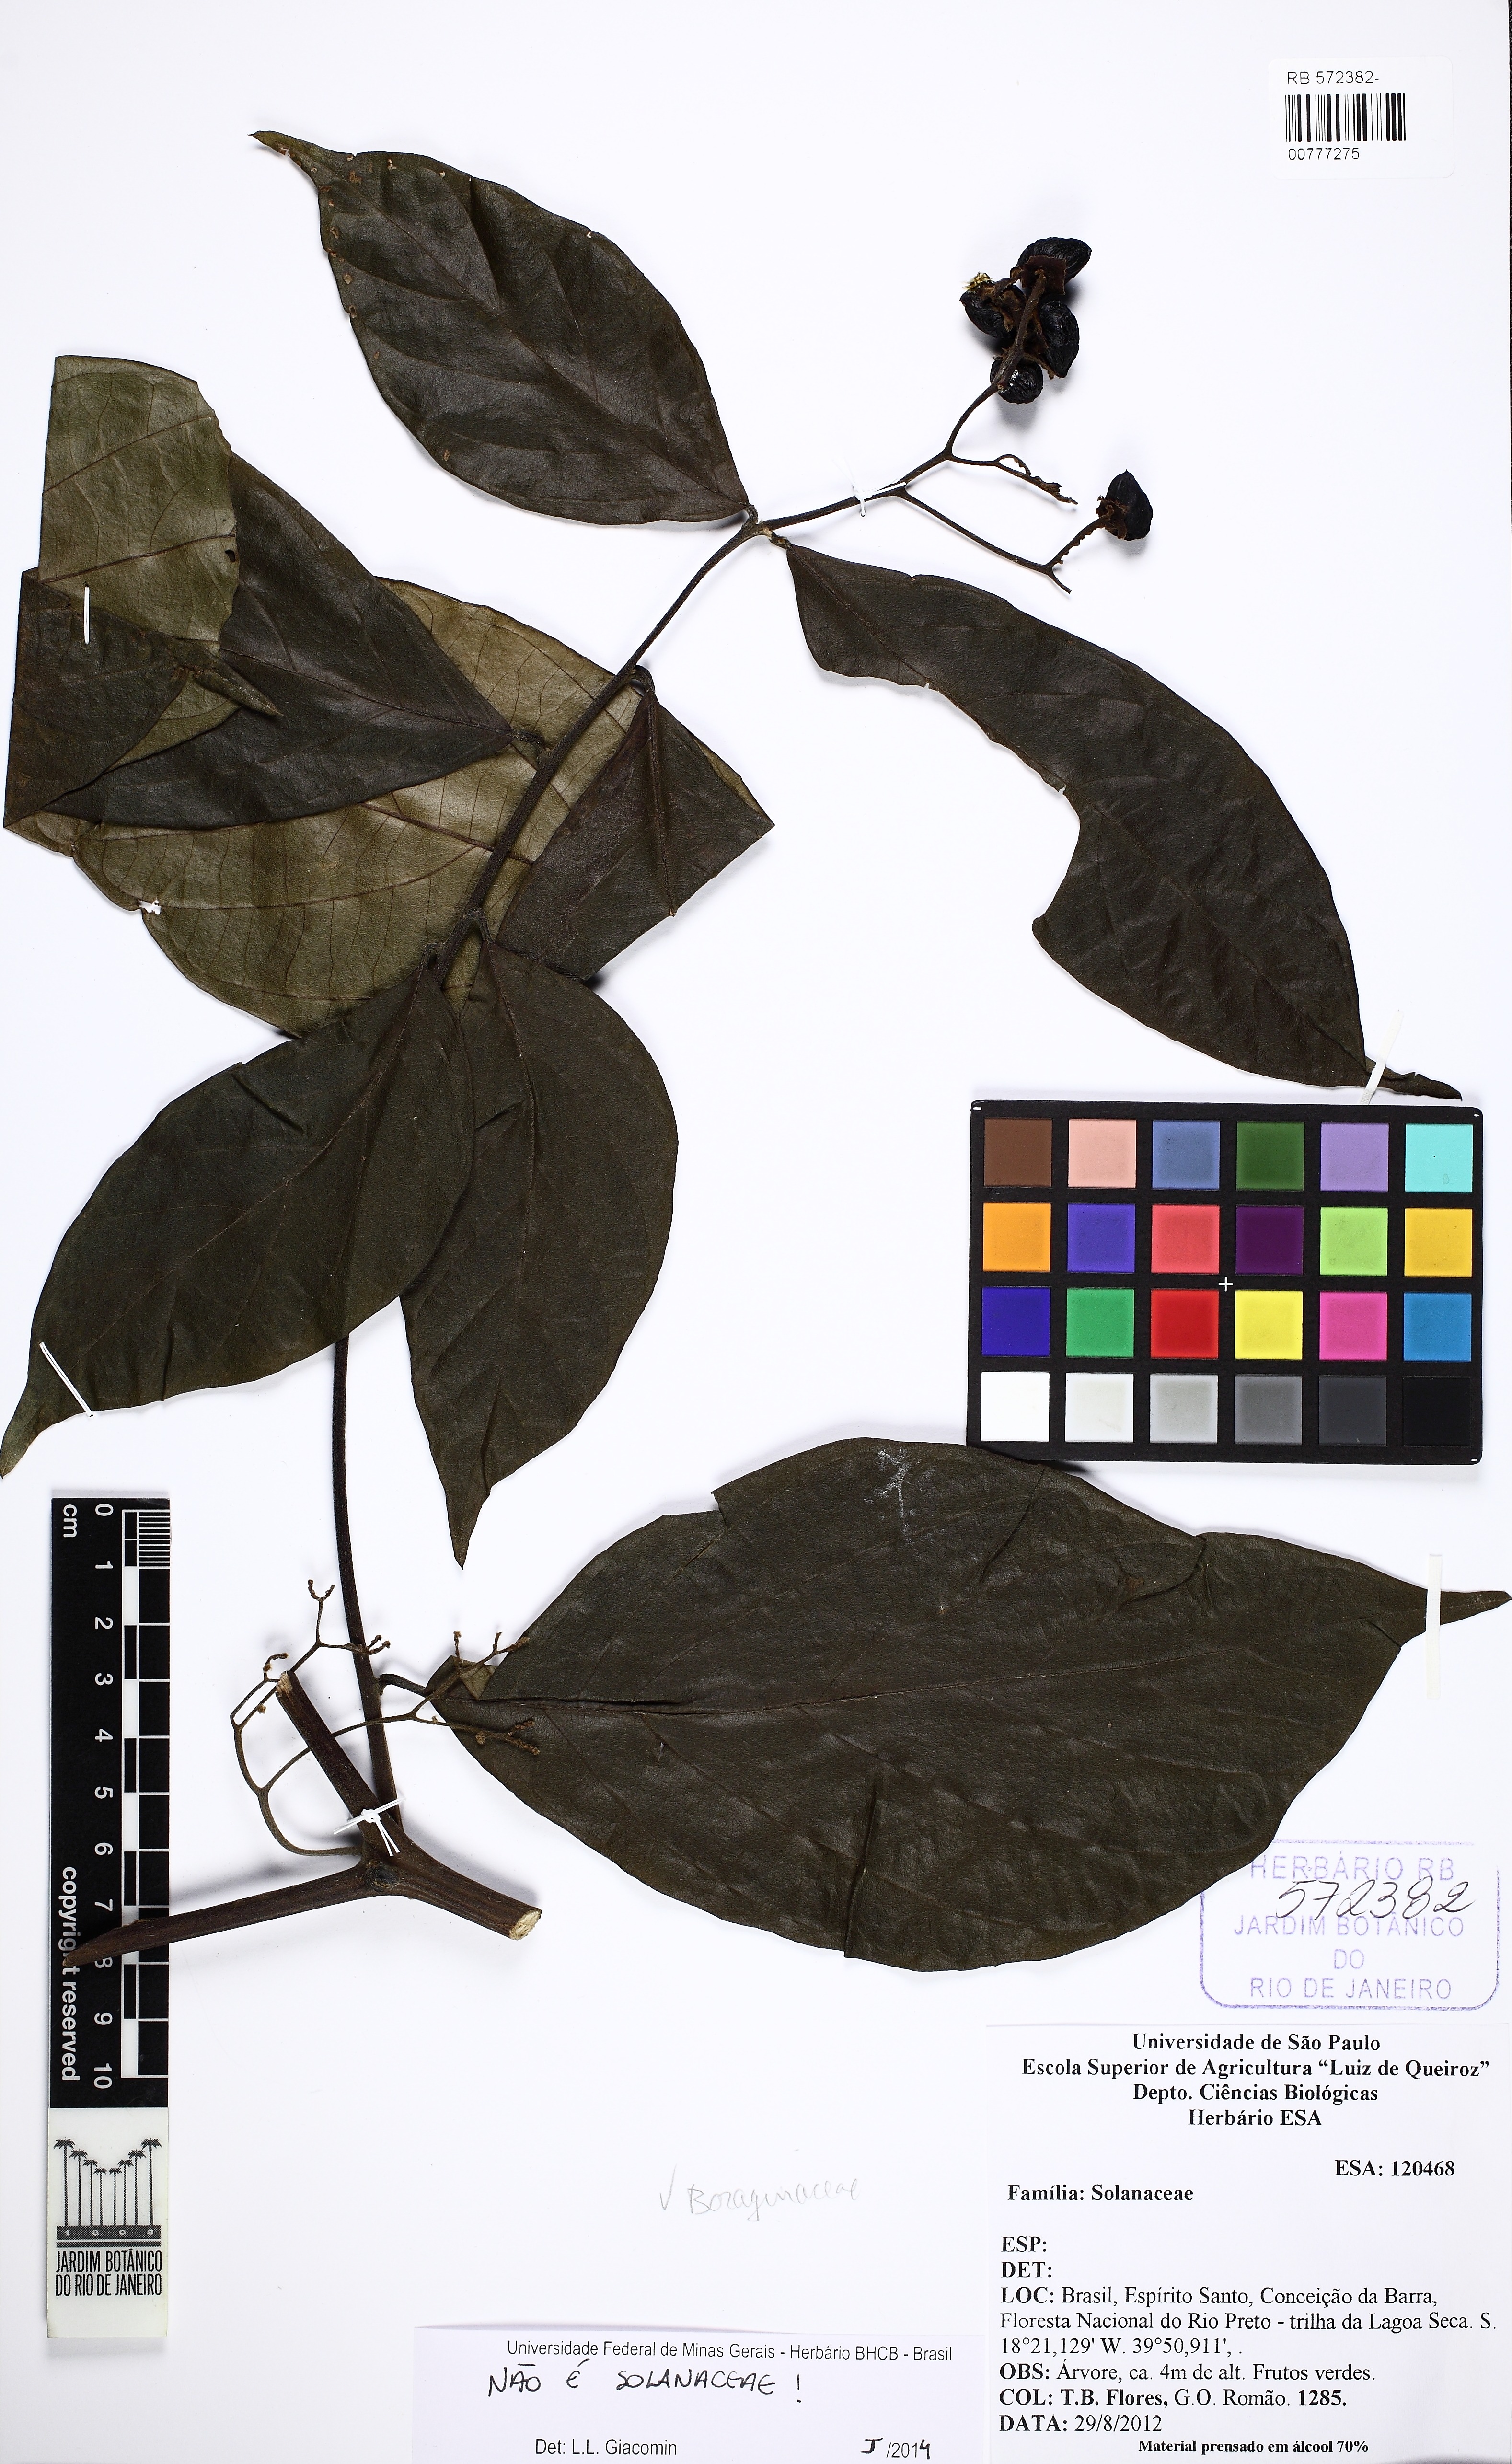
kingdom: Plantae
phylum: Tracheophyta
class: Magnoliopsida
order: Boraginales
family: Cordiaceae
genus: Cordia
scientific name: Cordia
